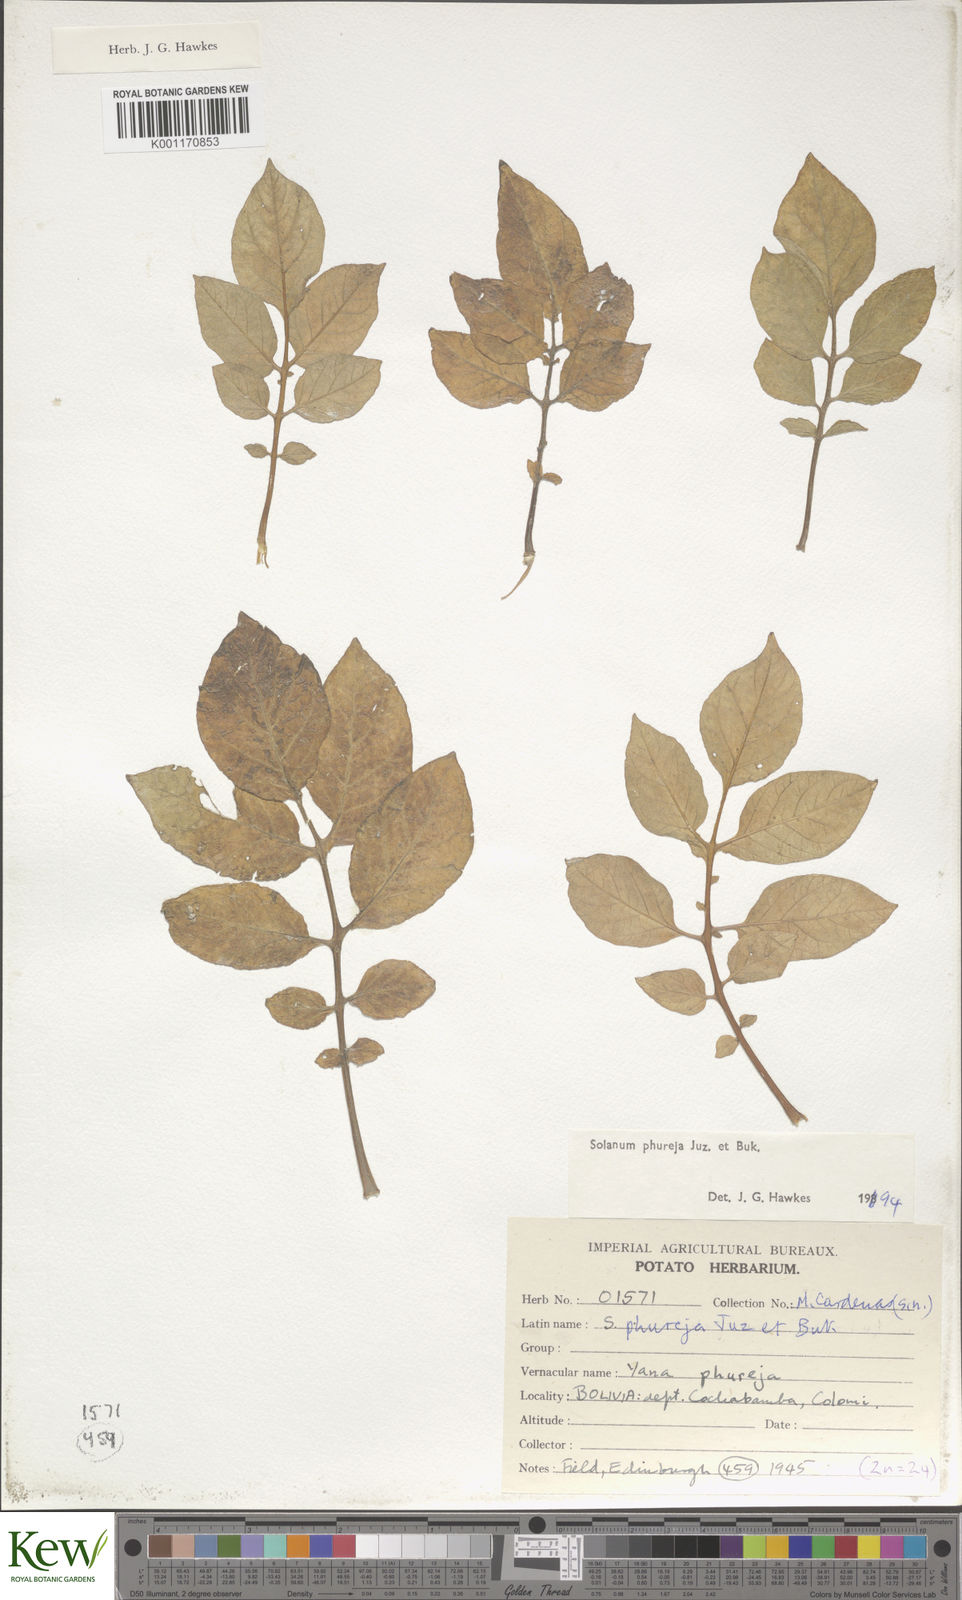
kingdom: Plantae
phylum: Tracheophyta
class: Magnoliopsida
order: Solanales
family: Solanaceae
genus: Solanum
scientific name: Solanum tuberosum
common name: Potato
